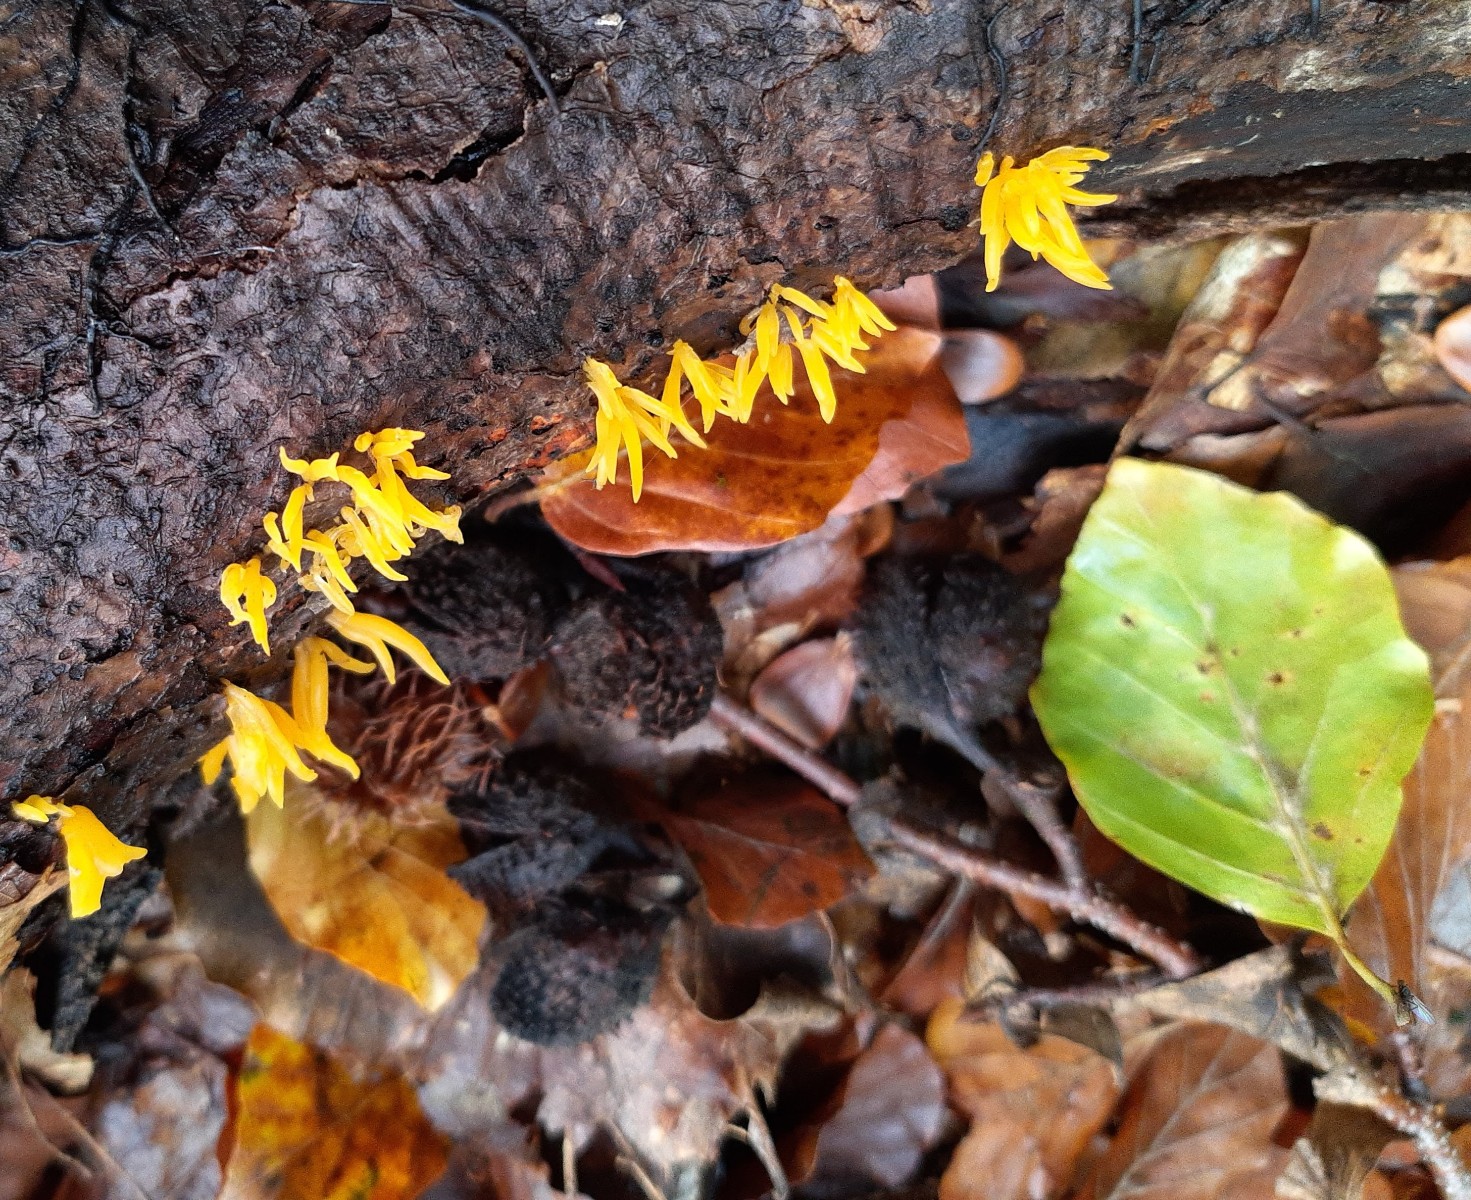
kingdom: Fungi
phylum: Basidiomycota
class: Dacrymycetes
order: Dacrymycetales
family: Dacrymycetaceae
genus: Calocera
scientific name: Calocera cornea
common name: liden guldgaffel
